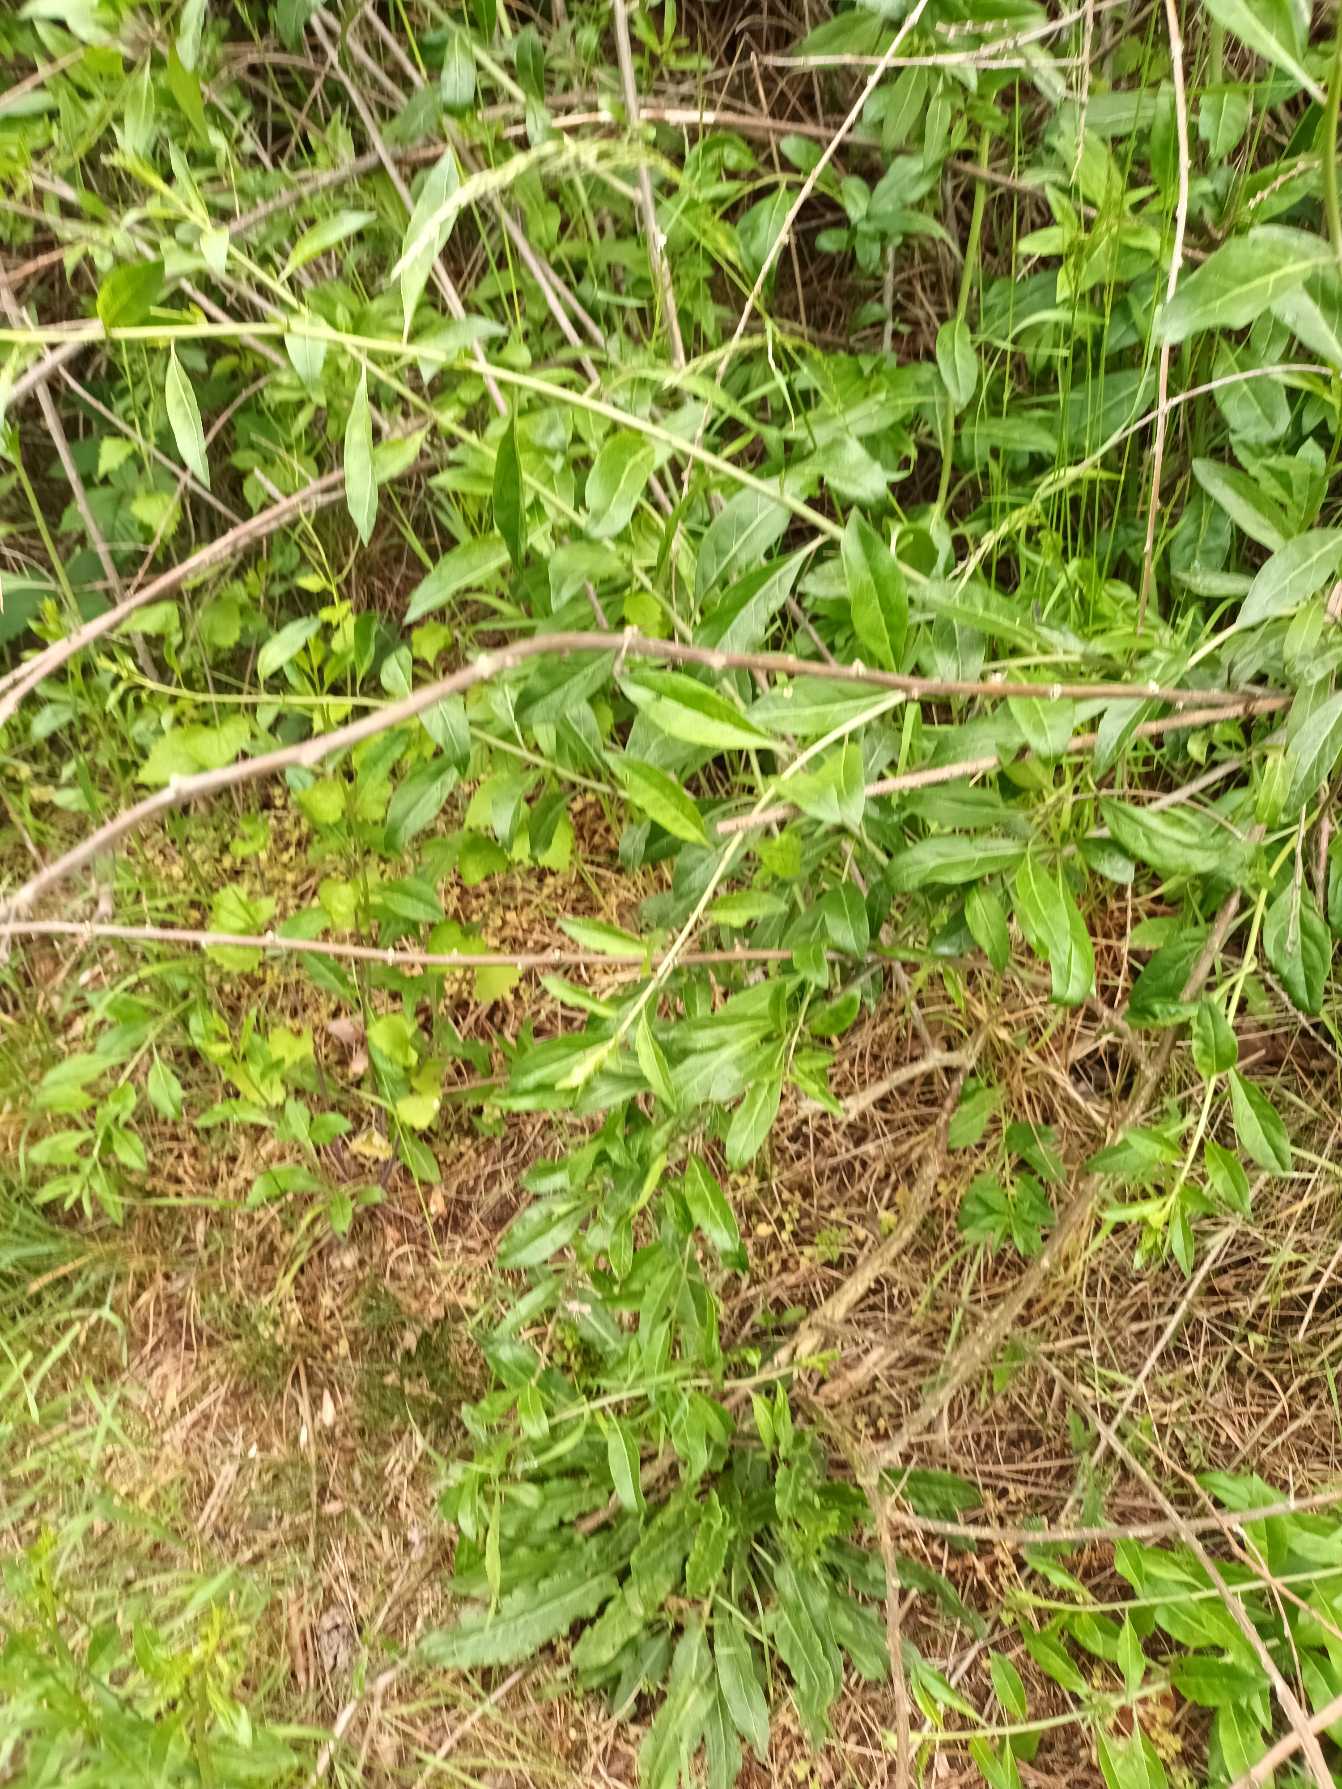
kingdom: Plantae
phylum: Tracheophyta
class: Magnoliopsida
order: Solanales
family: Solanaceae
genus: Lycium
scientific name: Lycium barbarum
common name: Bukketorn
